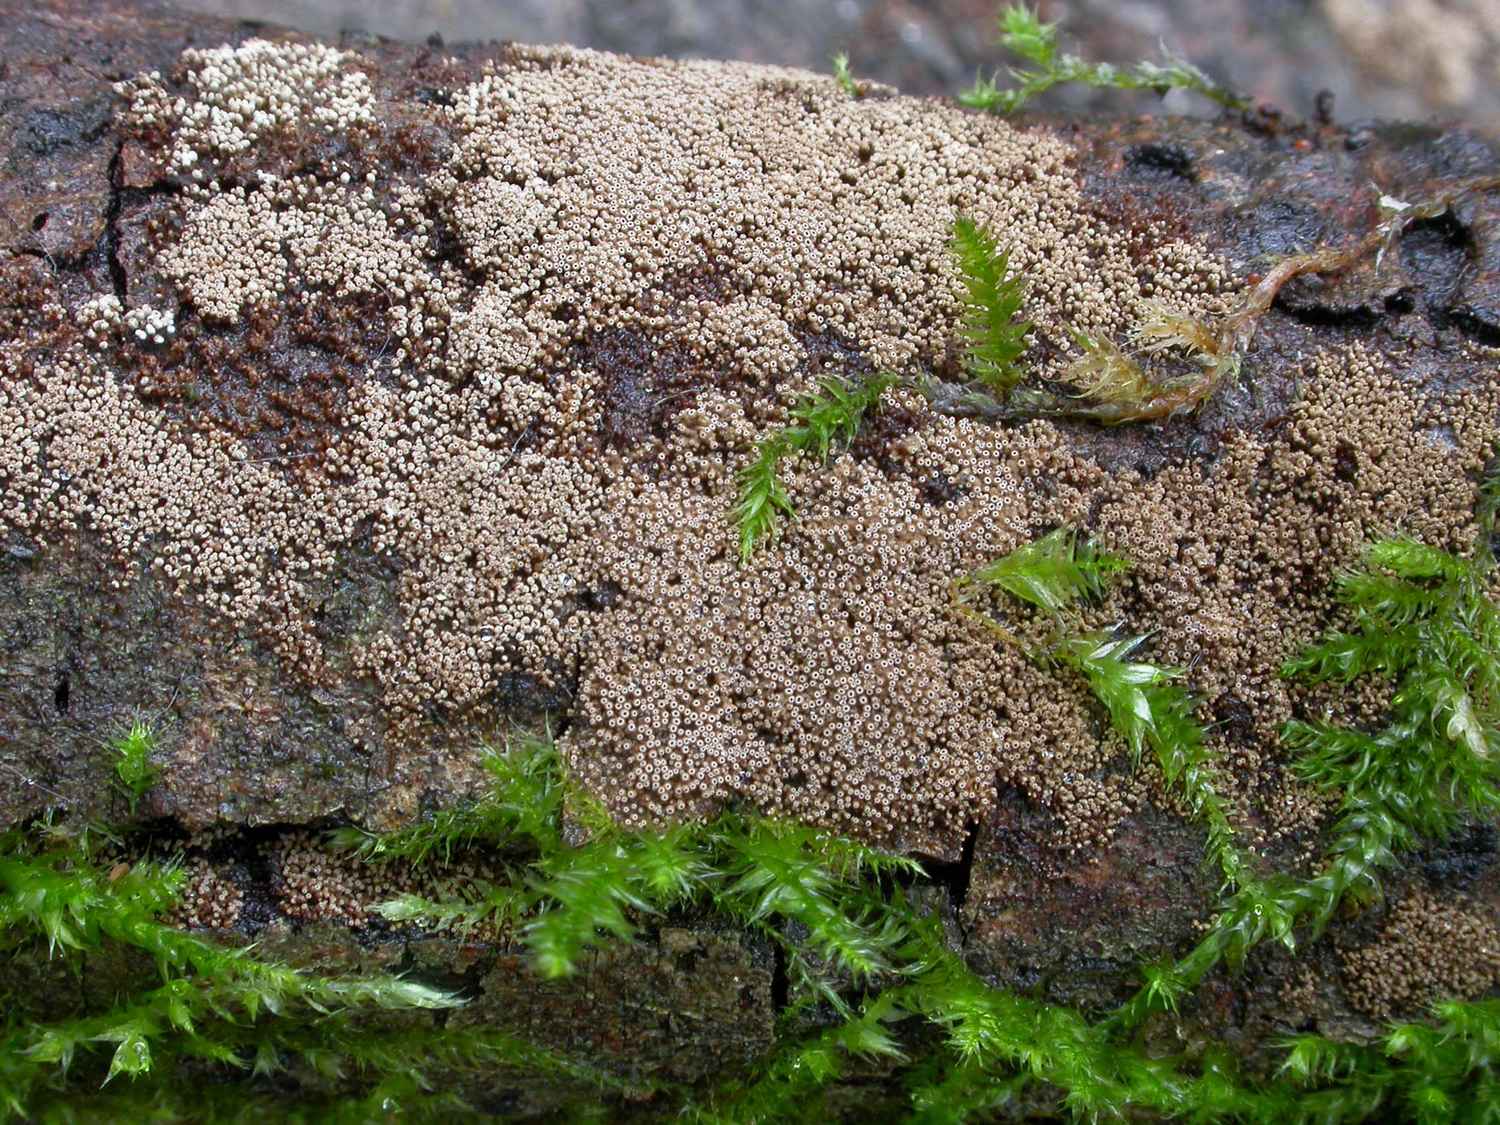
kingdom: Fungi
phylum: Basidiomycota
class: Agaricomycetes
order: Agaricales
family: Niaceae
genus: Merismodes
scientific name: Merismodes anomala
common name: almindelig læderskål
